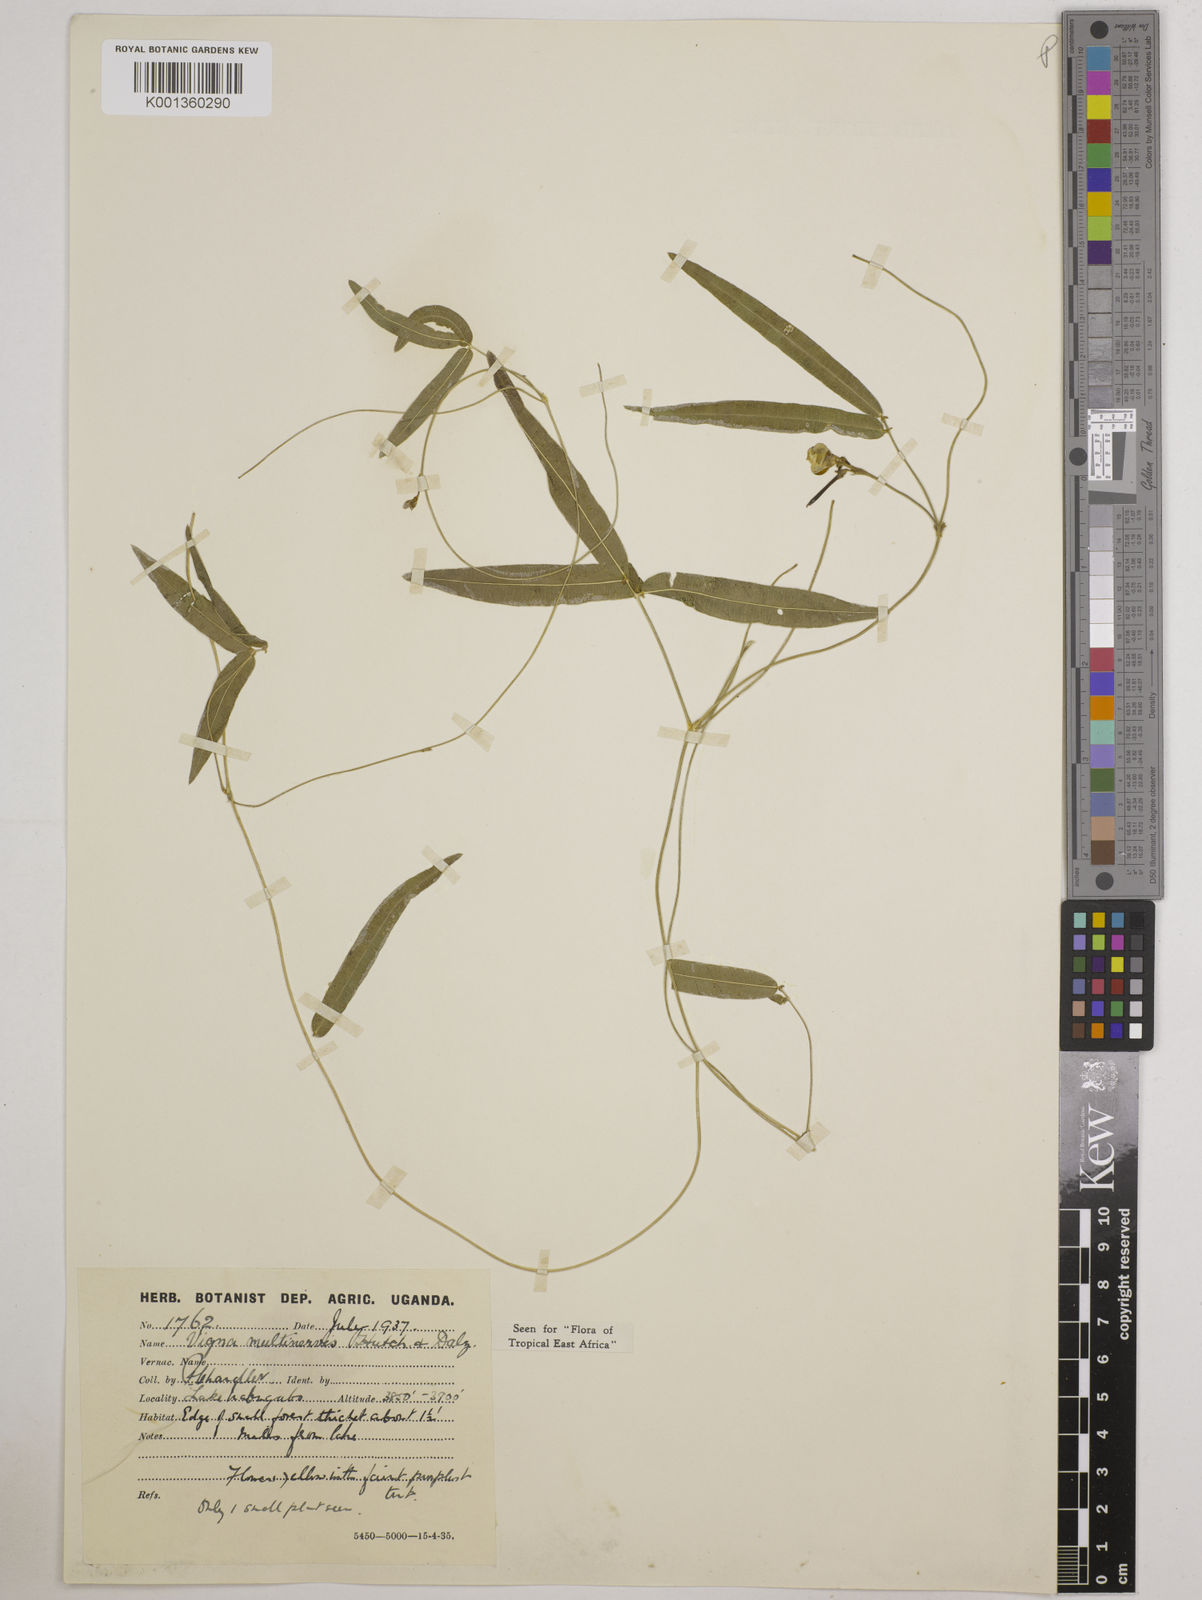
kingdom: Plantae
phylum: Tracheophyta
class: Magnoliopsida
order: Fabales
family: Fabaceae
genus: Vigna
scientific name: Vigna multinervis
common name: Fula-pulaar
